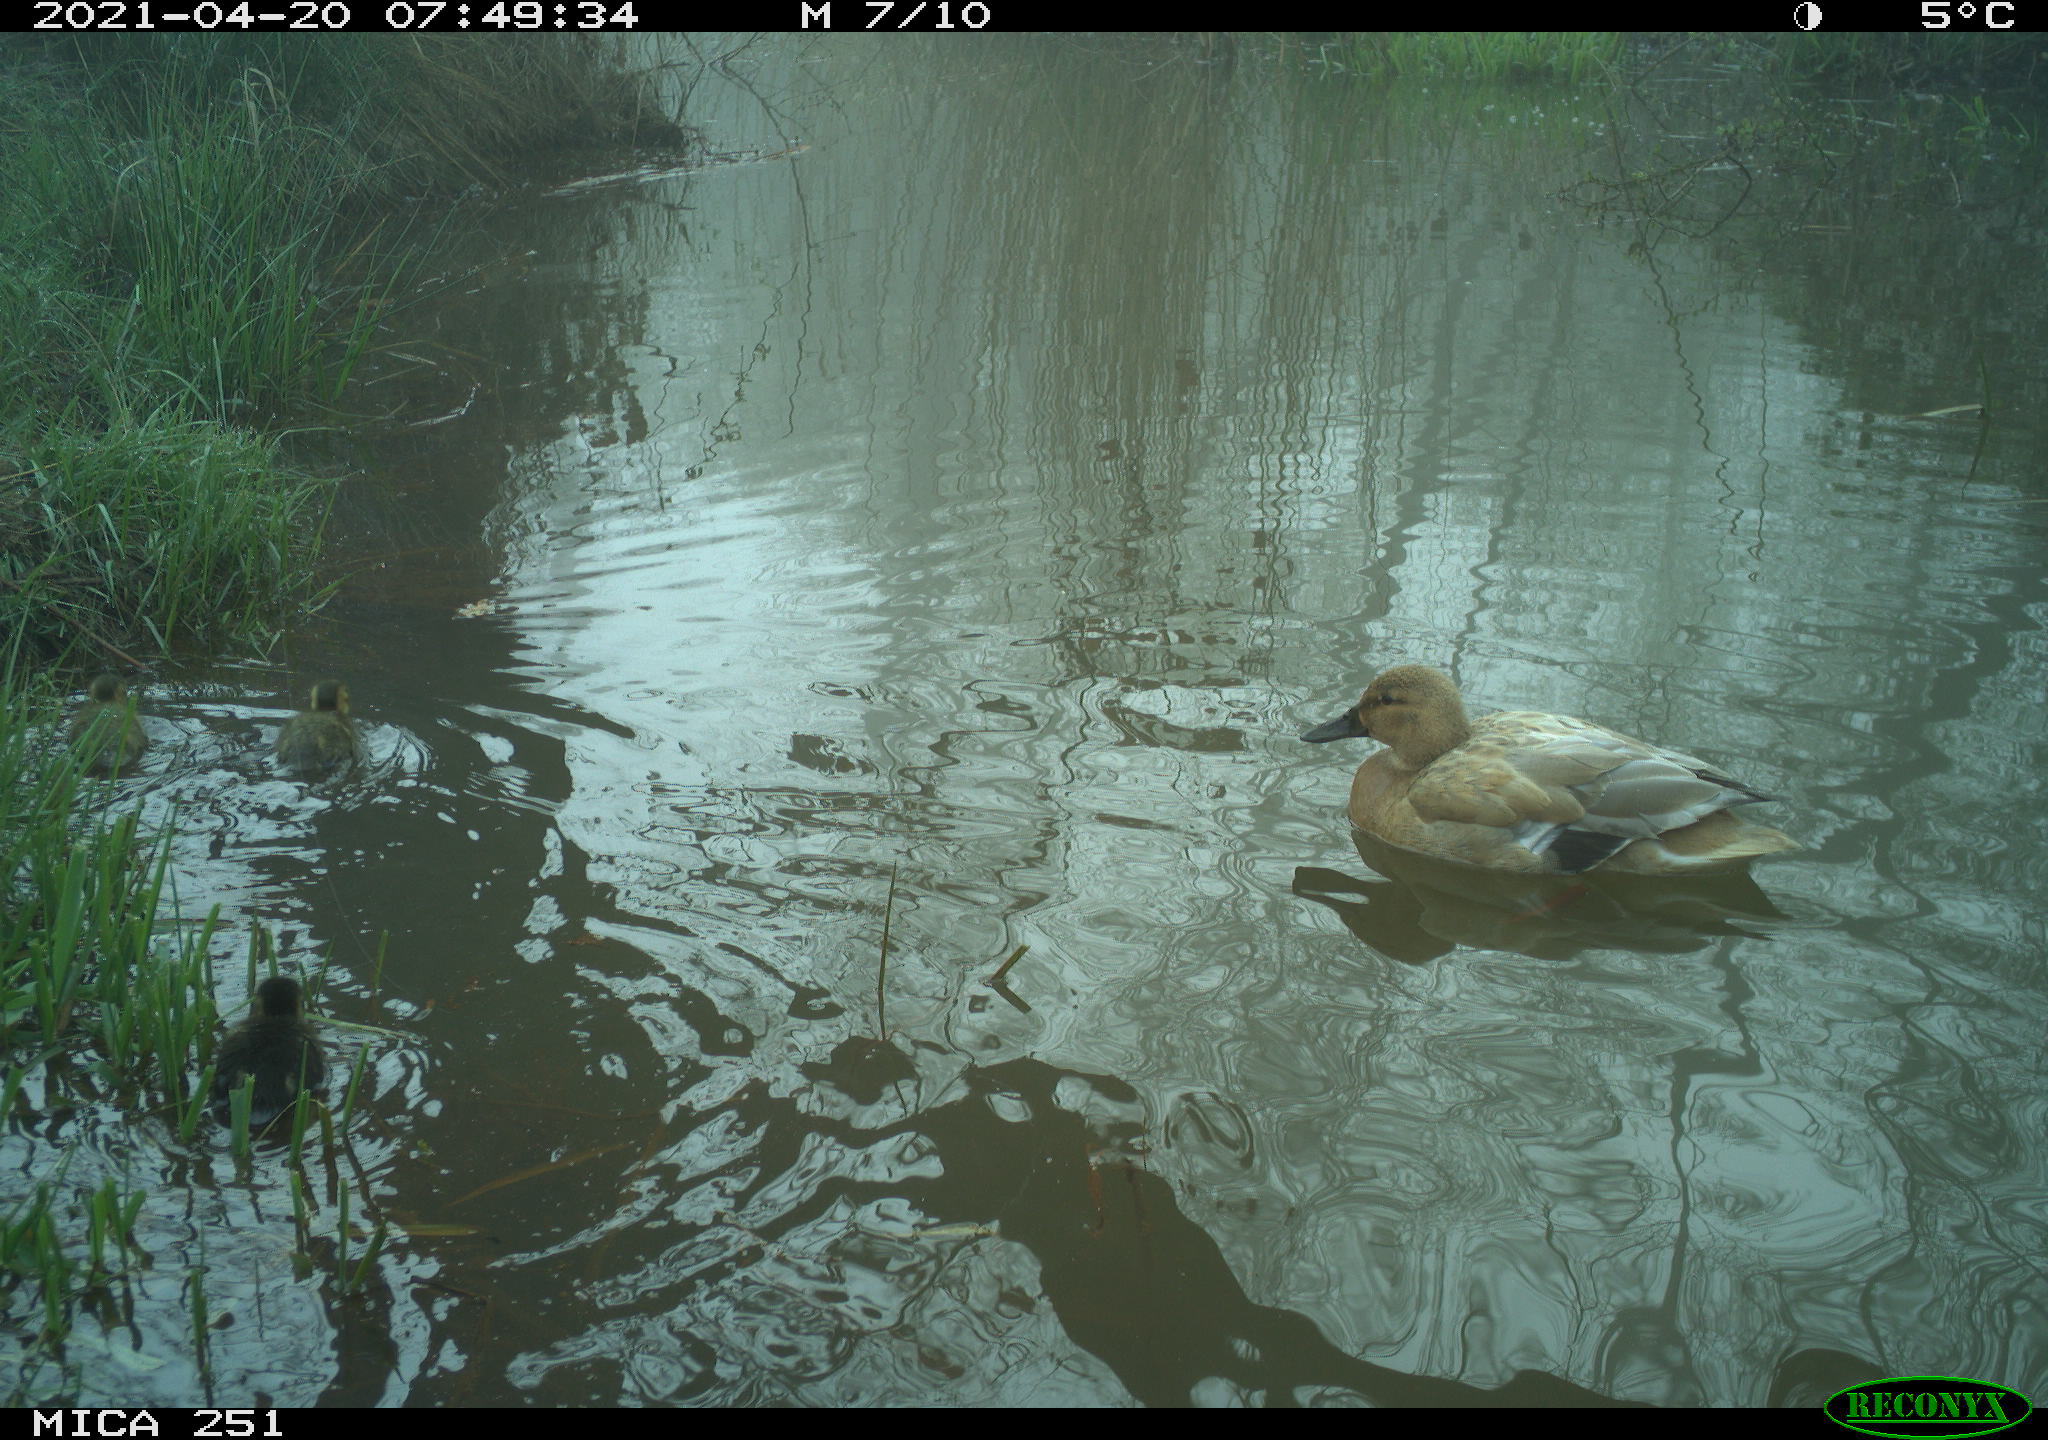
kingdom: Animalia
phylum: Chordata
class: Aves
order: Anseriformes
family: Anatidae
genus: Mareca
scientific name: Mareca strepera
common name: Gadwall
